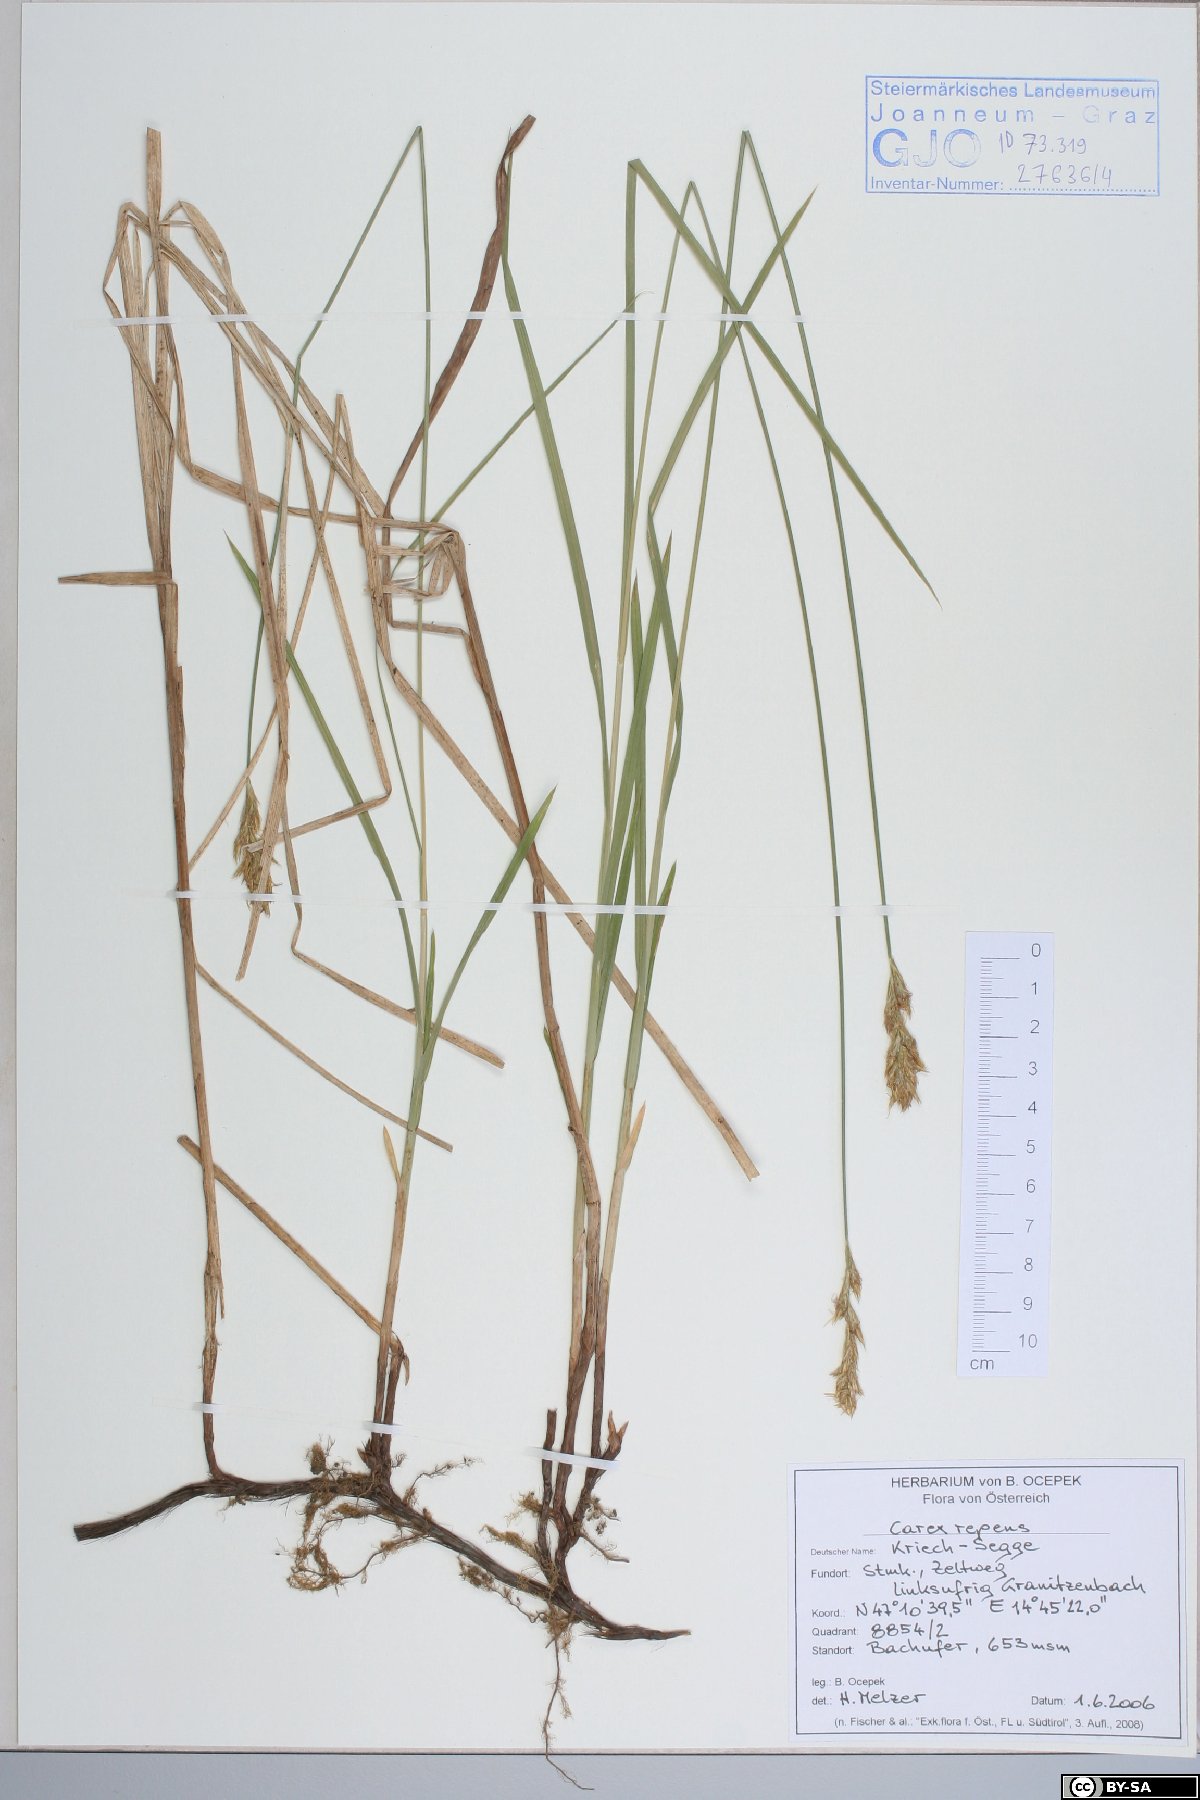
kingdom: Plantae
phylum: Tracheophyta
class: Liliopsida
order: Poales
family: Cyperaceae
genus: Carex
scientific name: Carex repens
